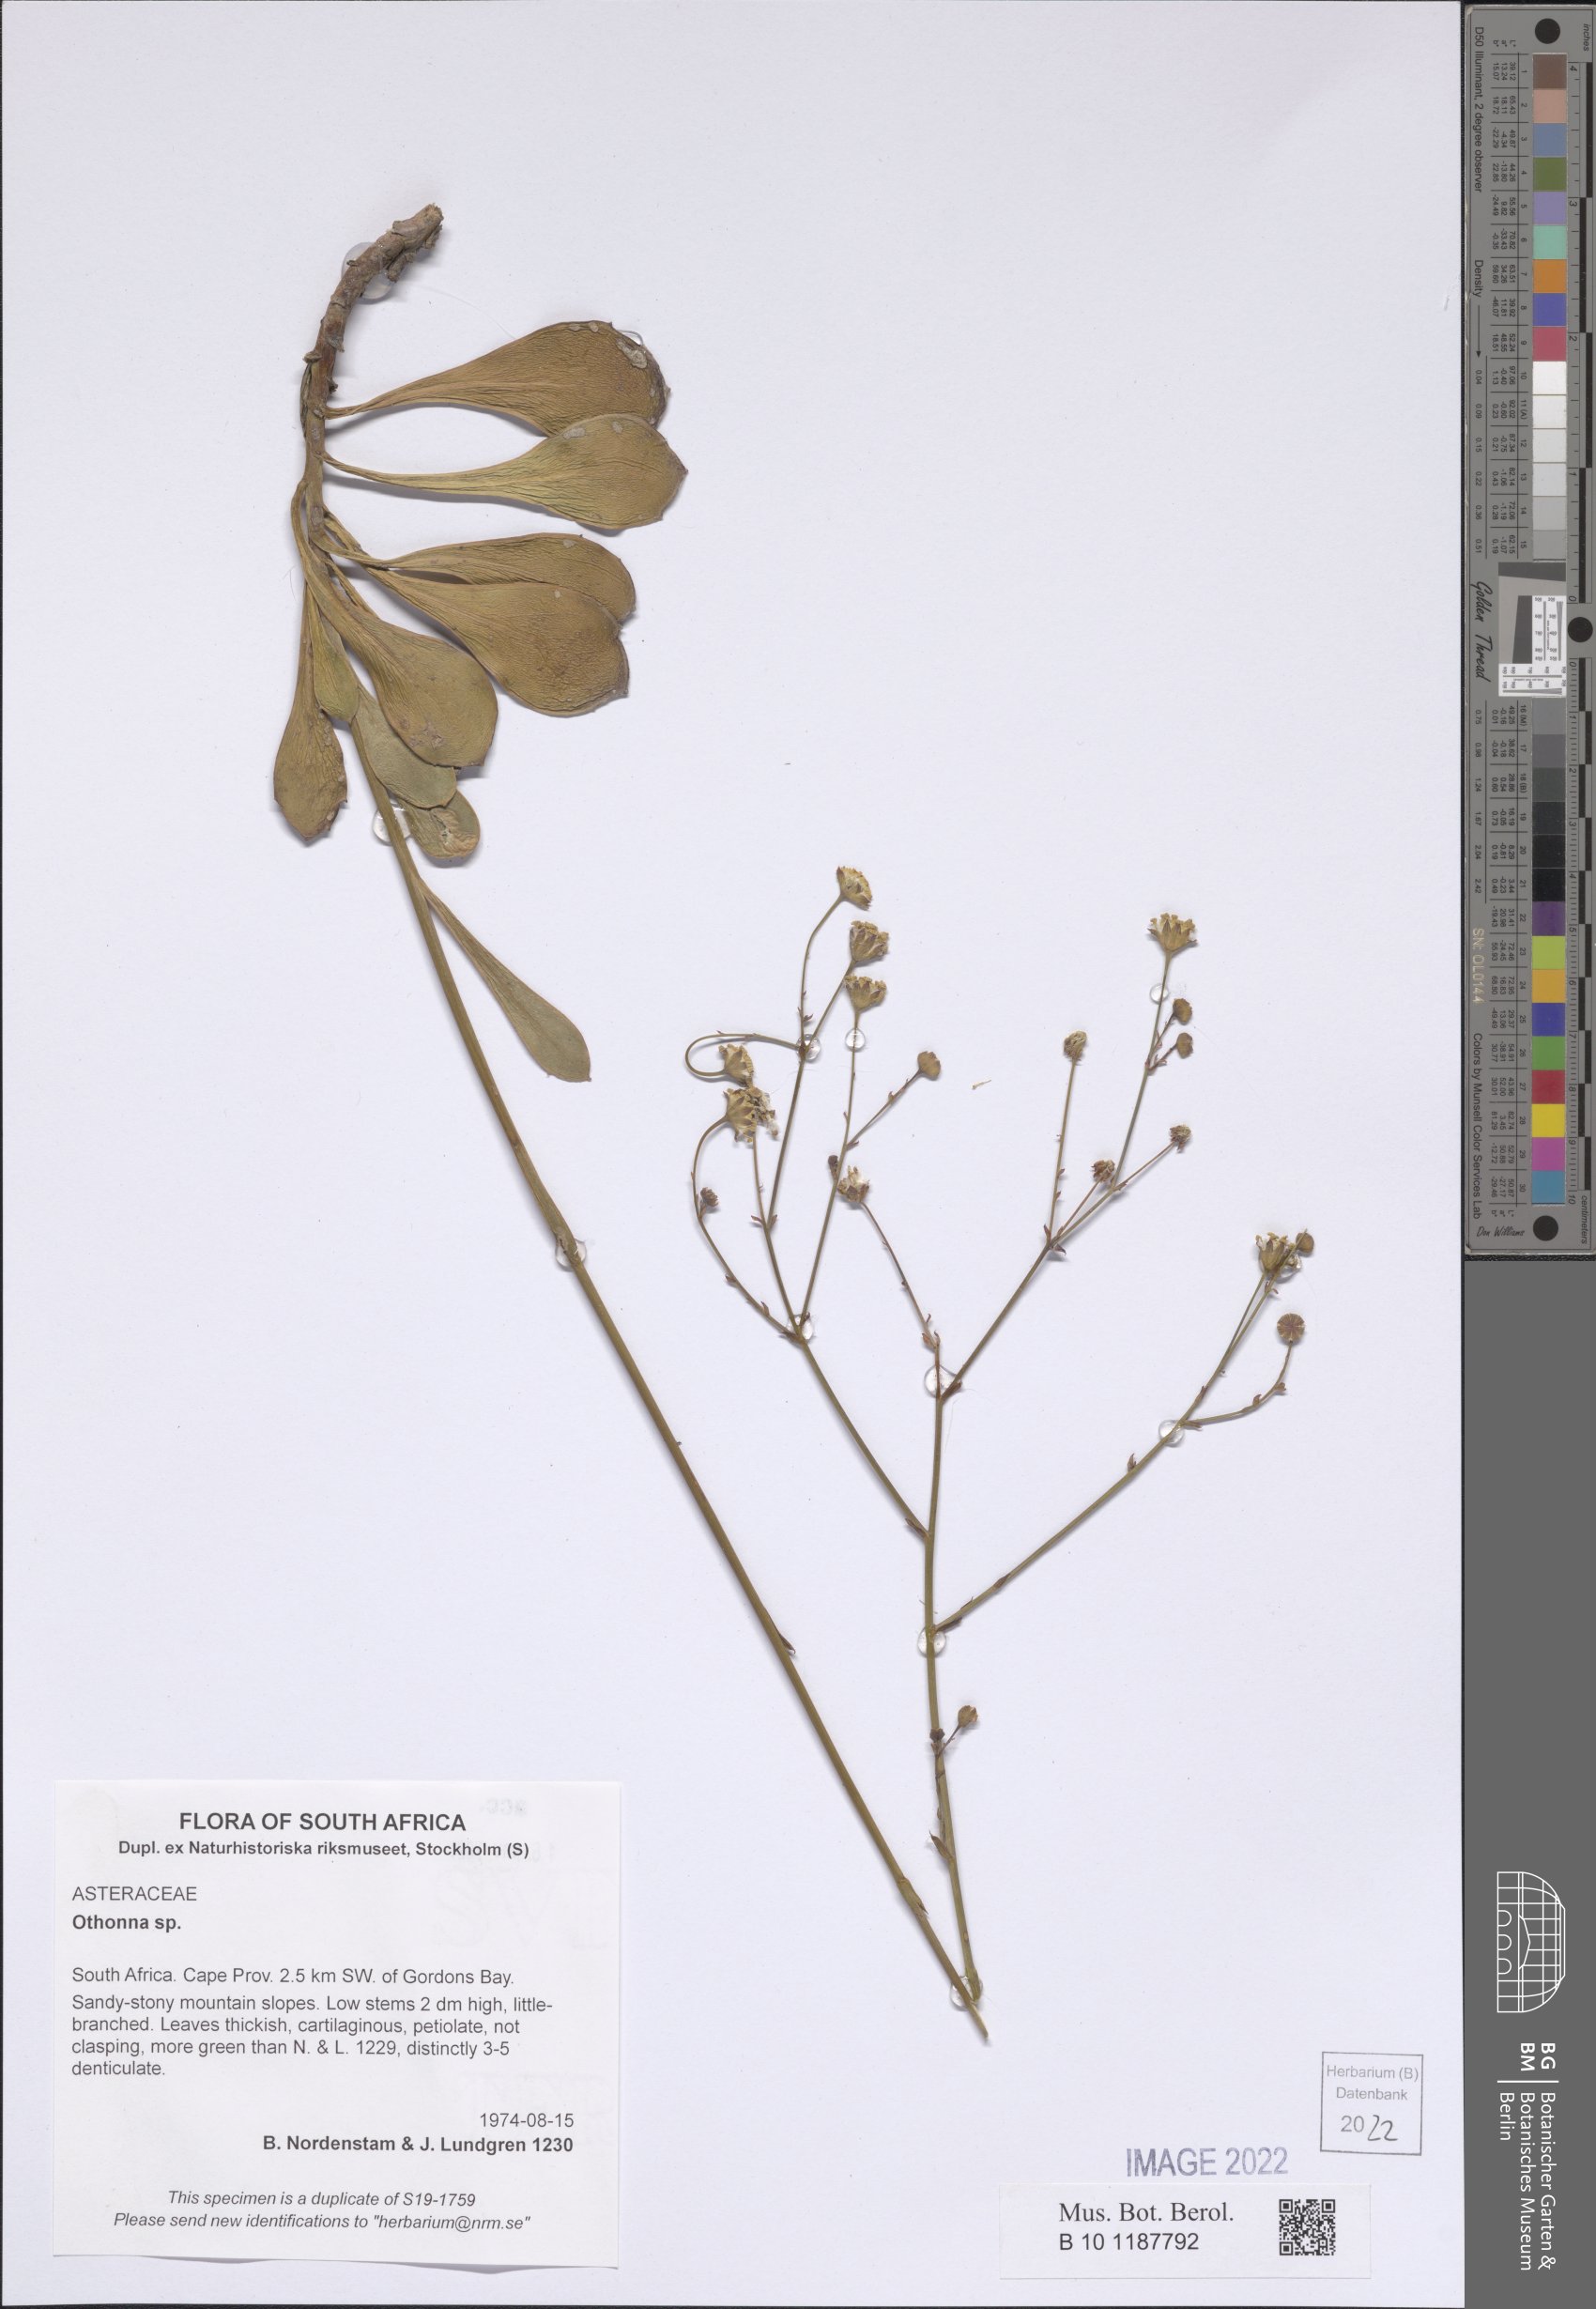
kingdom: Plantae
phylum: Tracheophyta
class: Magnoliopsida
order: Asterales
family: Asteraceae
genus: Othonna
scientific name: Othonna
